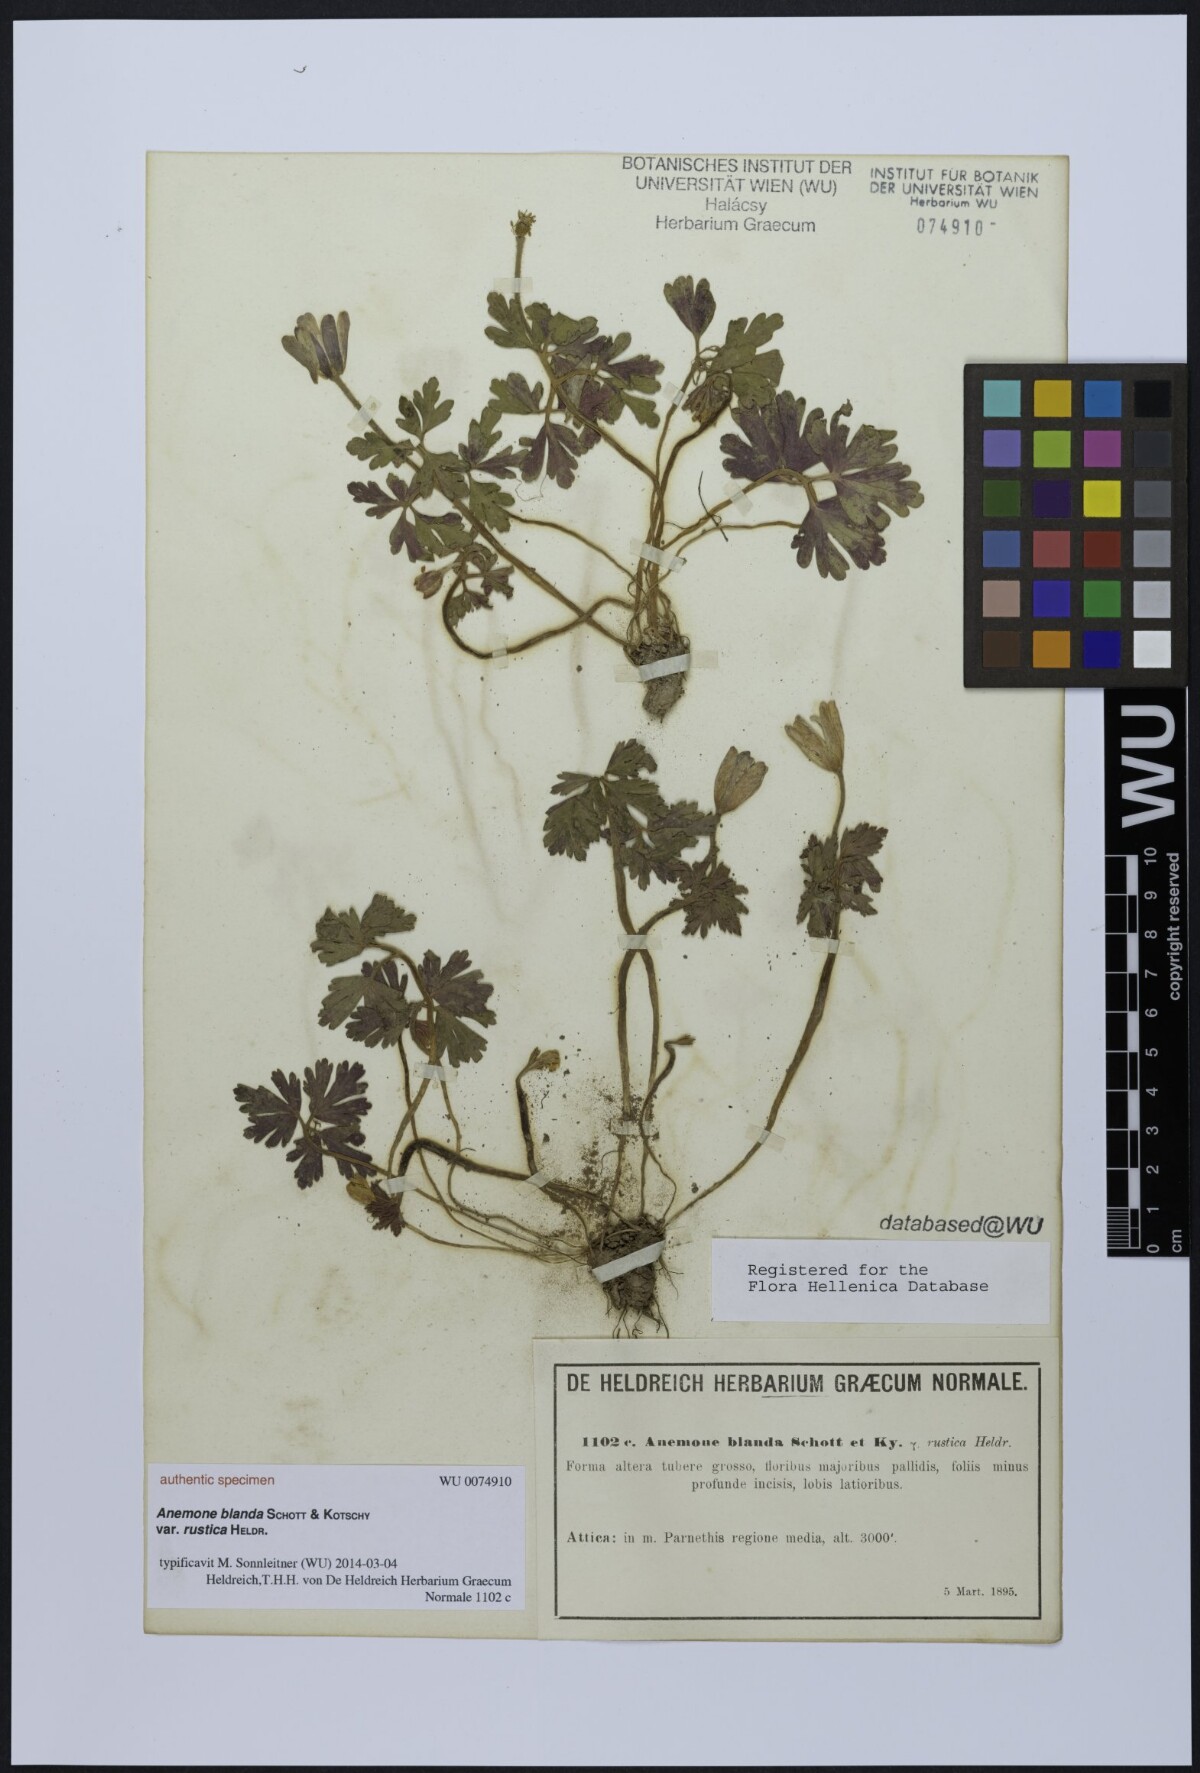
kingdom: Plantae
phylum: Tracheophyta
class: Magnoliopsida
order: Ranunculales
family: Ranunculaceae
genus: Anemone
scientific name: Anemone blanda
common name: Balkan anemone
